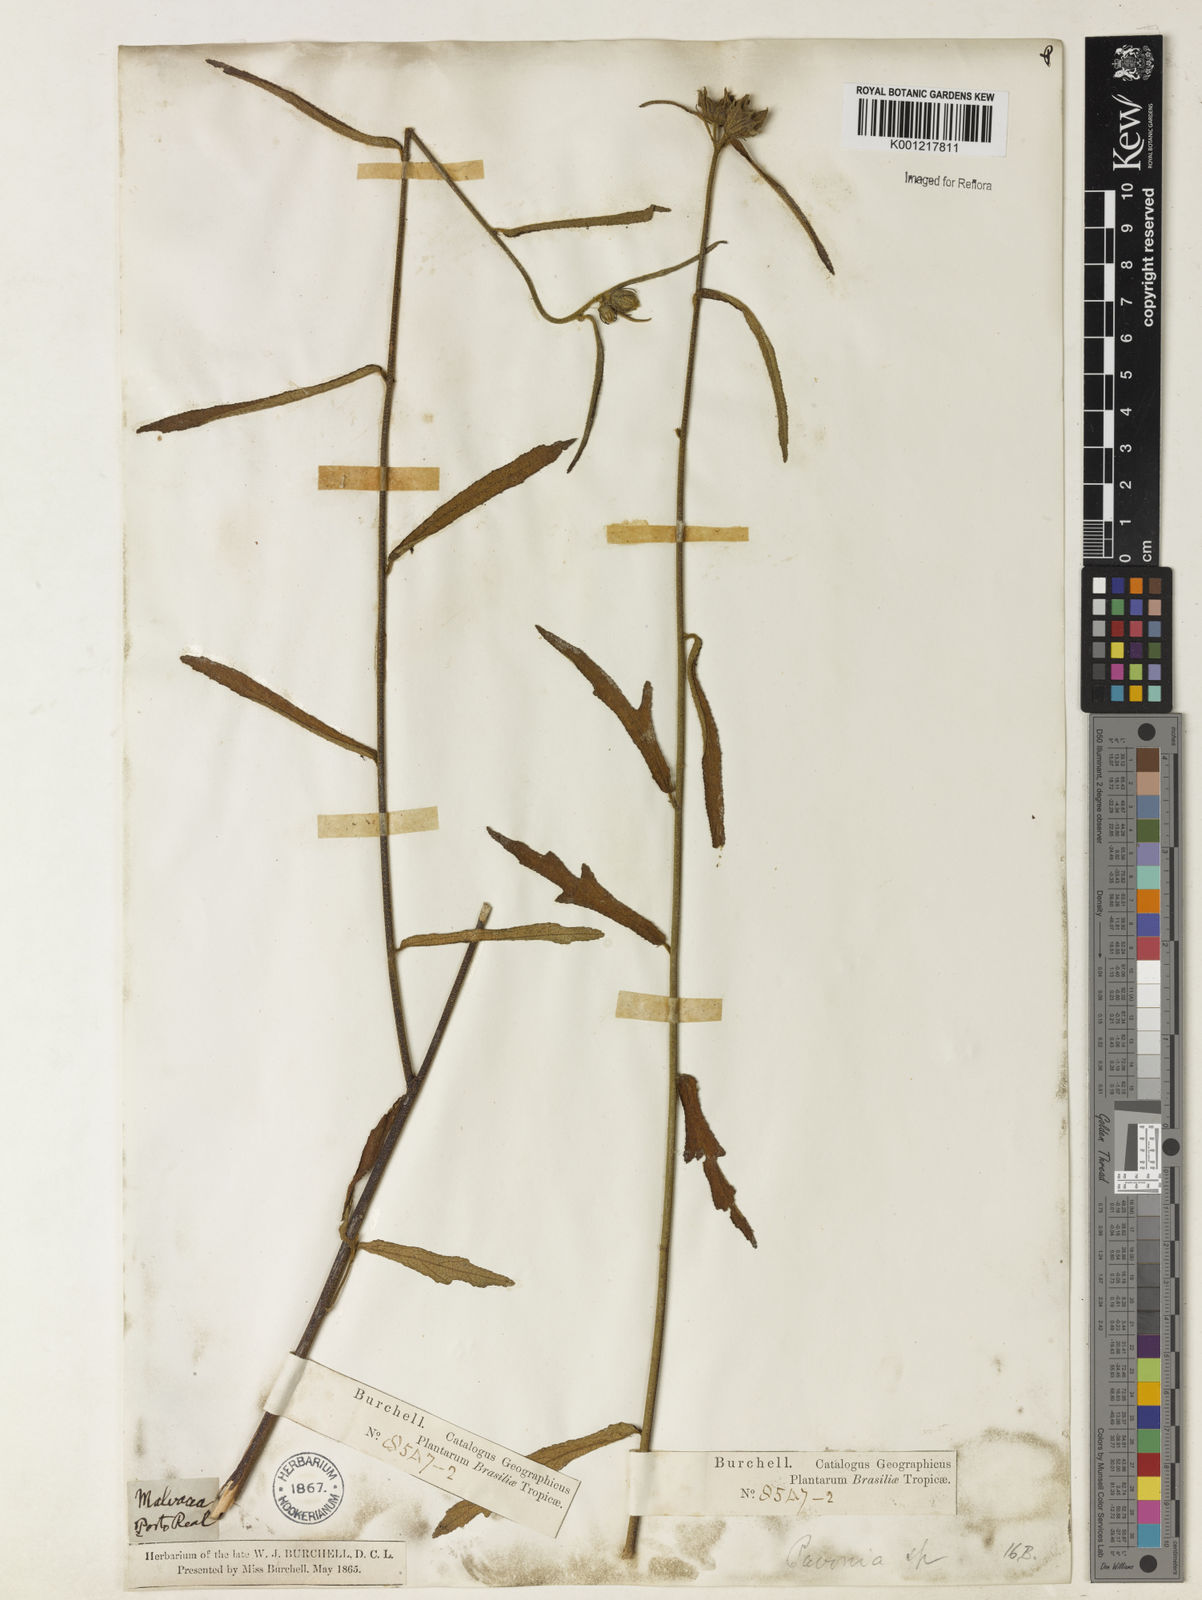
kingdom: Plantae
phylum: Tracheophyta
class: Magnoliopsida
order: Malvales
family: Malvaceae
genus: Pavonia
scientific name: Pavonia
